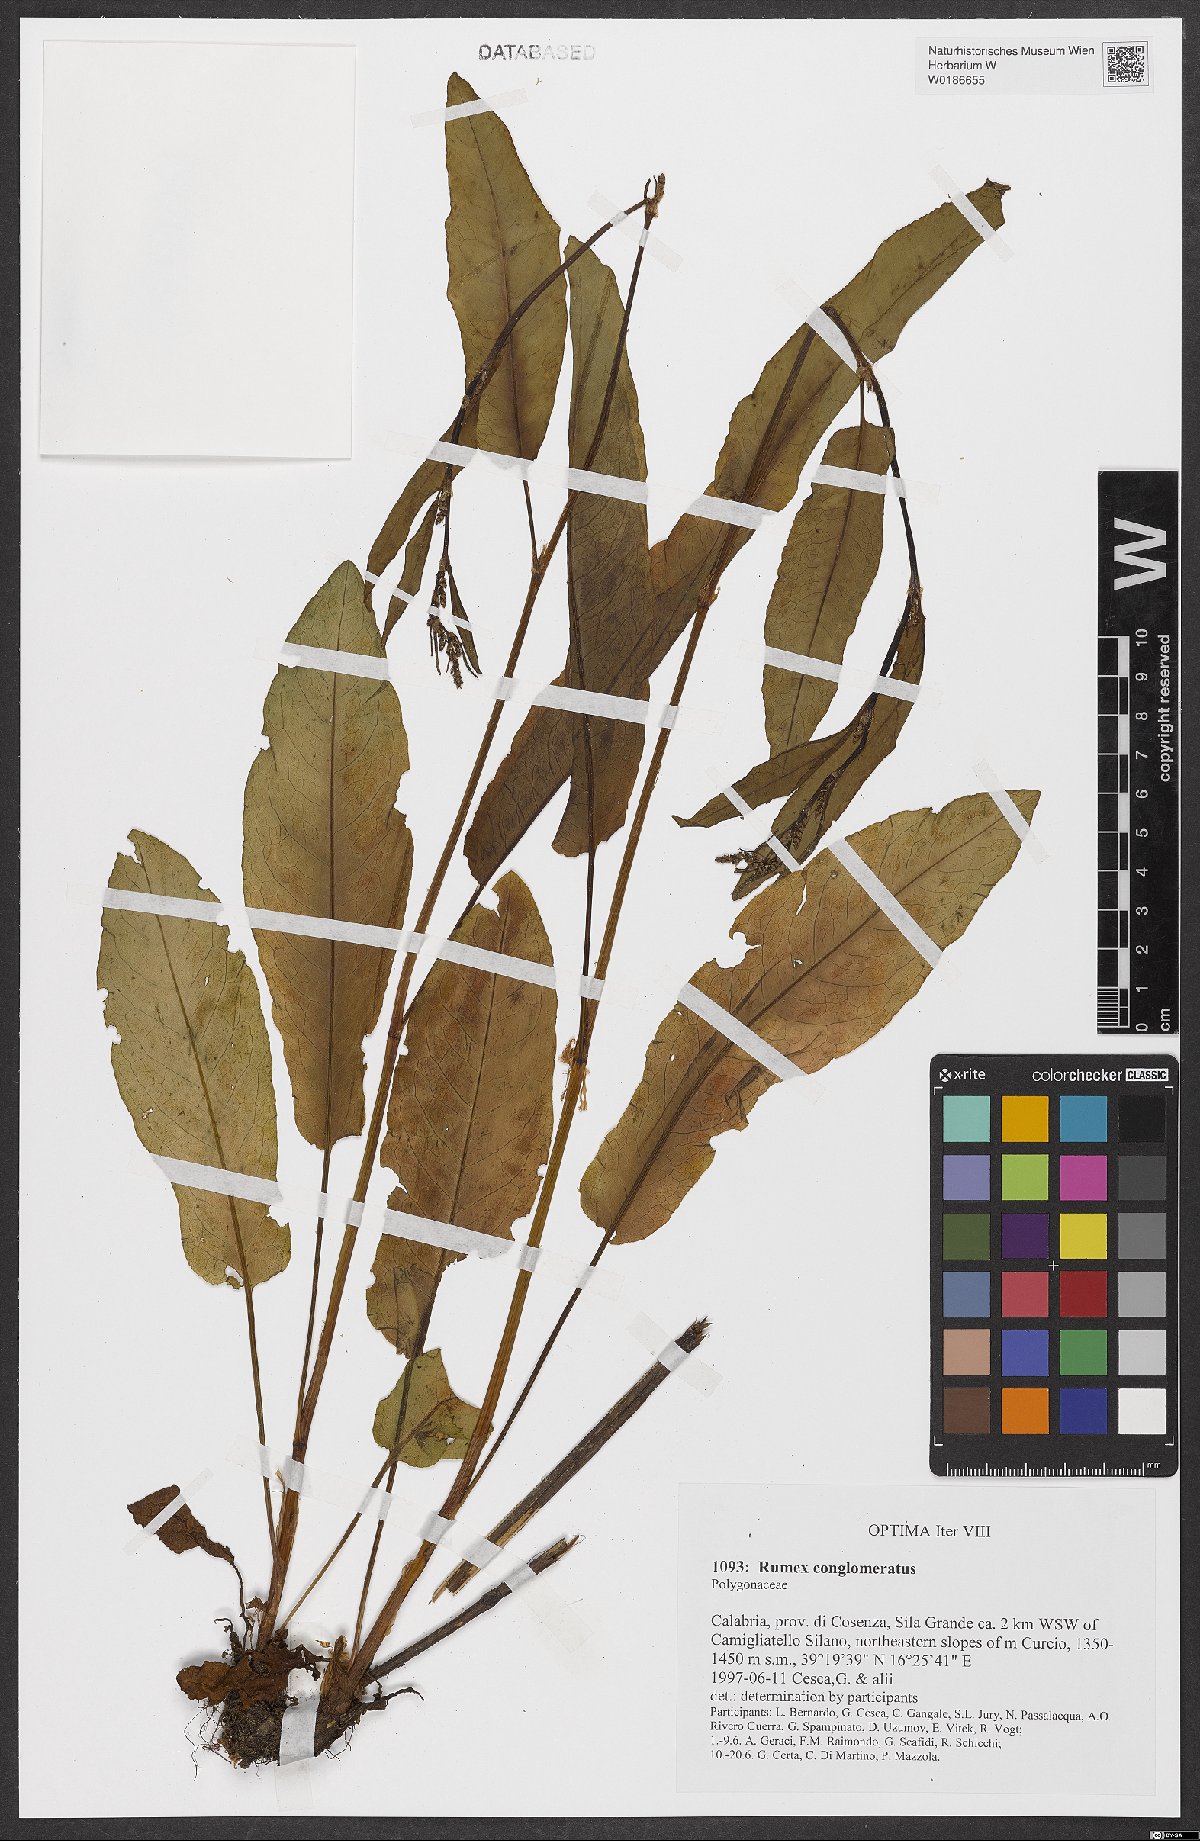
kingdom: Plantae
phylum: Tracheophyta
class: Magnoliopsida
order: Caryophyllales
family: Polygonaceae
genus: Rumex
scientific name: Rumex conglomeratus
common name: Clustered dock
